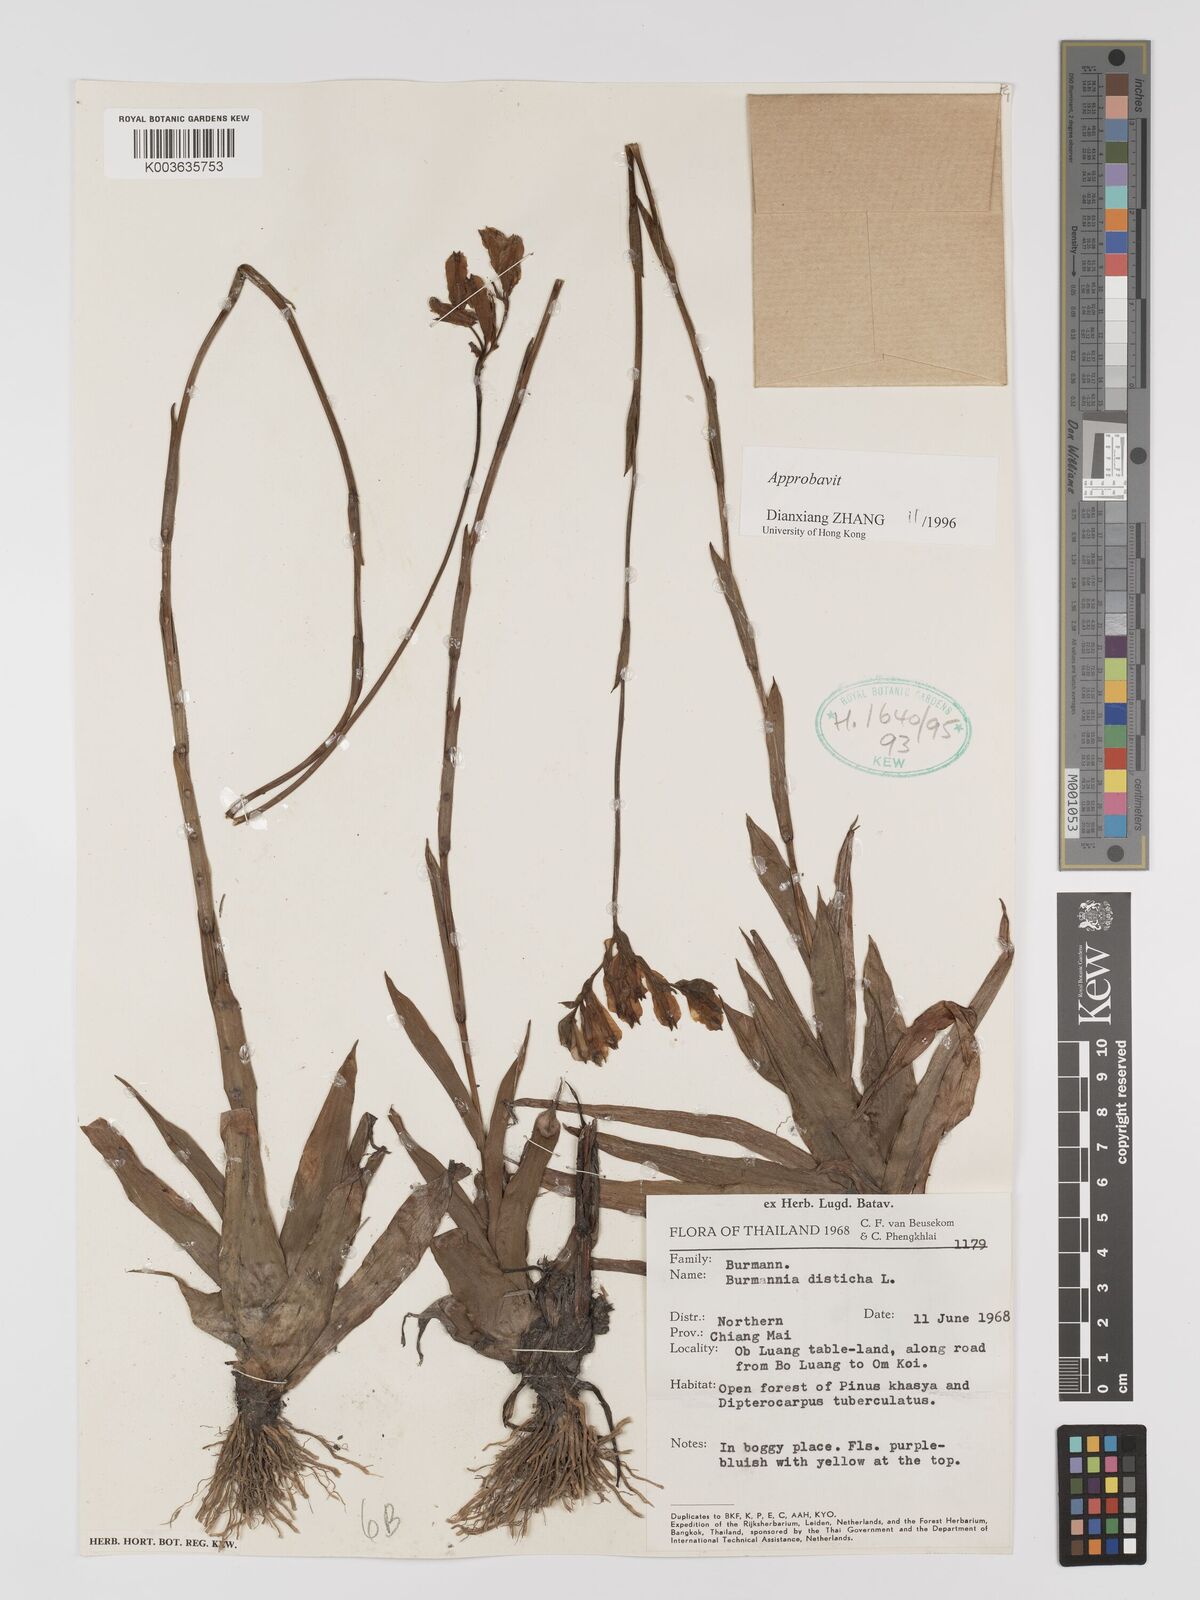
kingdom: Plantae
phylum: Tracheophyta
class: Liliopsida
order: Dioscoreales
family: Burmanniaceae
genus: Burmannia
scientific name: Burmannia disticha
